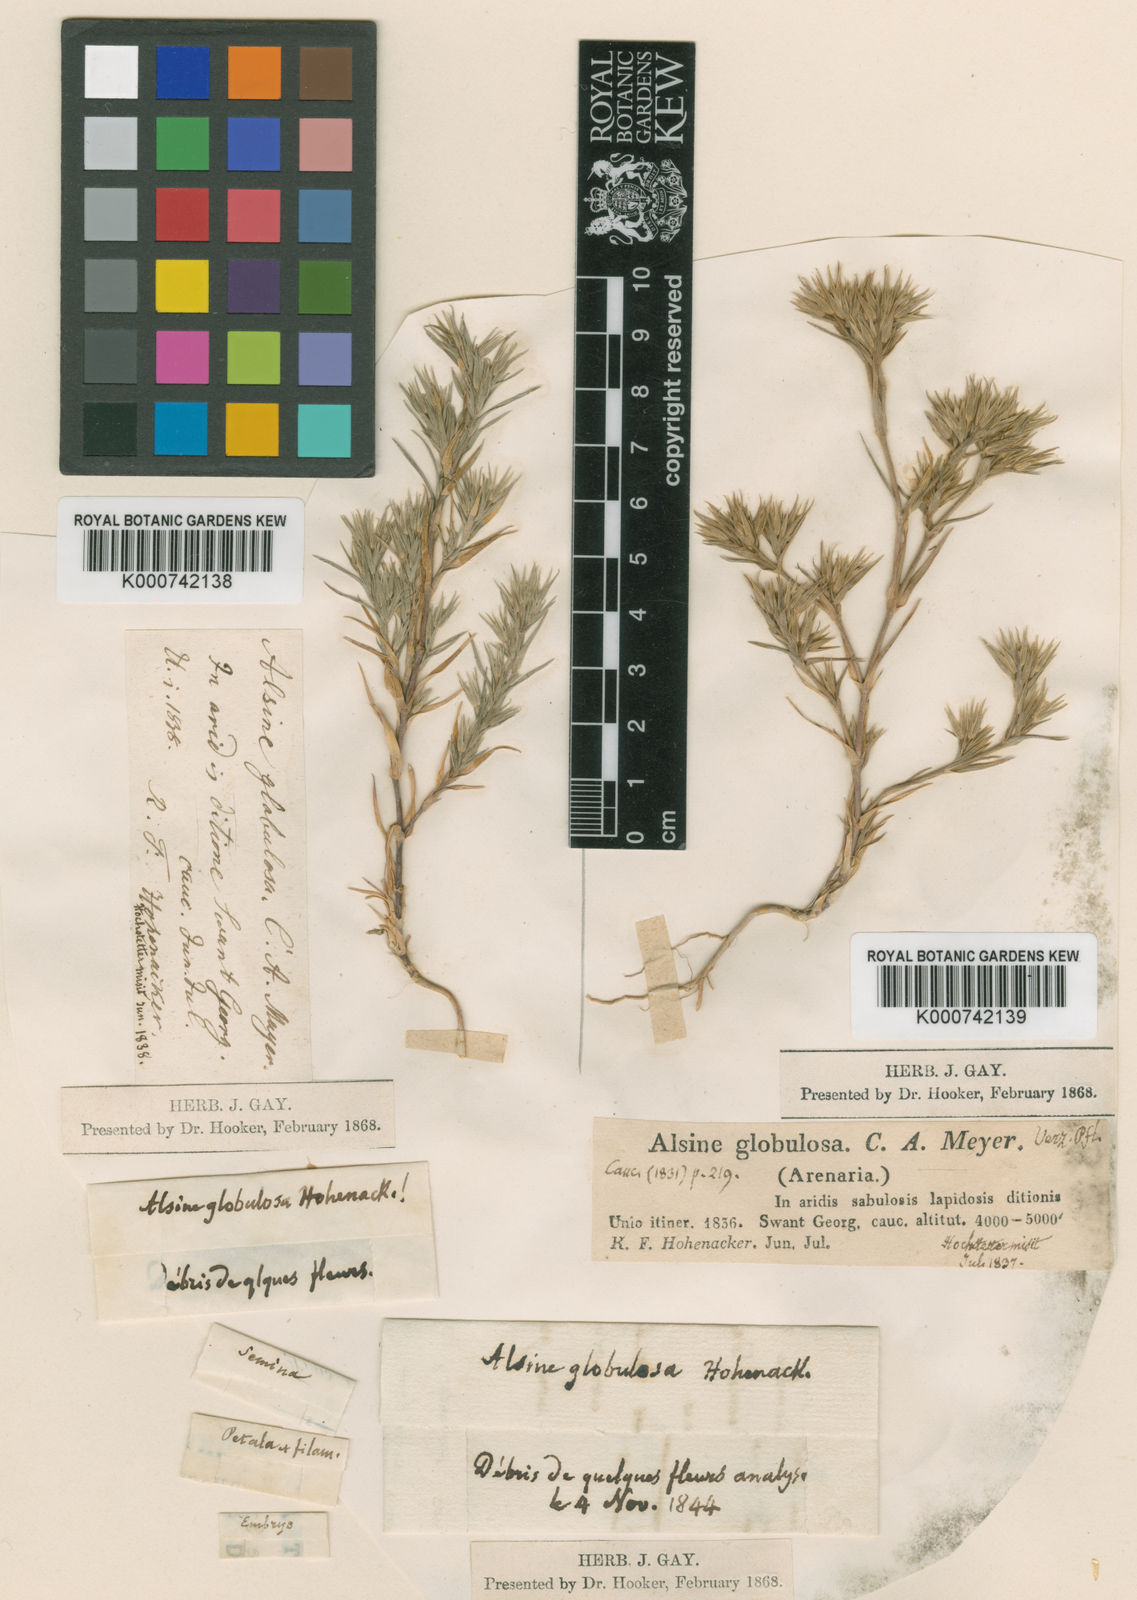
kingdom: Plantae
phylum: Tracheophyta
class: Magnoliopsida
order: Caryophyllales
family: Caryophyllaceae
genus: Minuartia
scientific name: Minuartia meyeri
